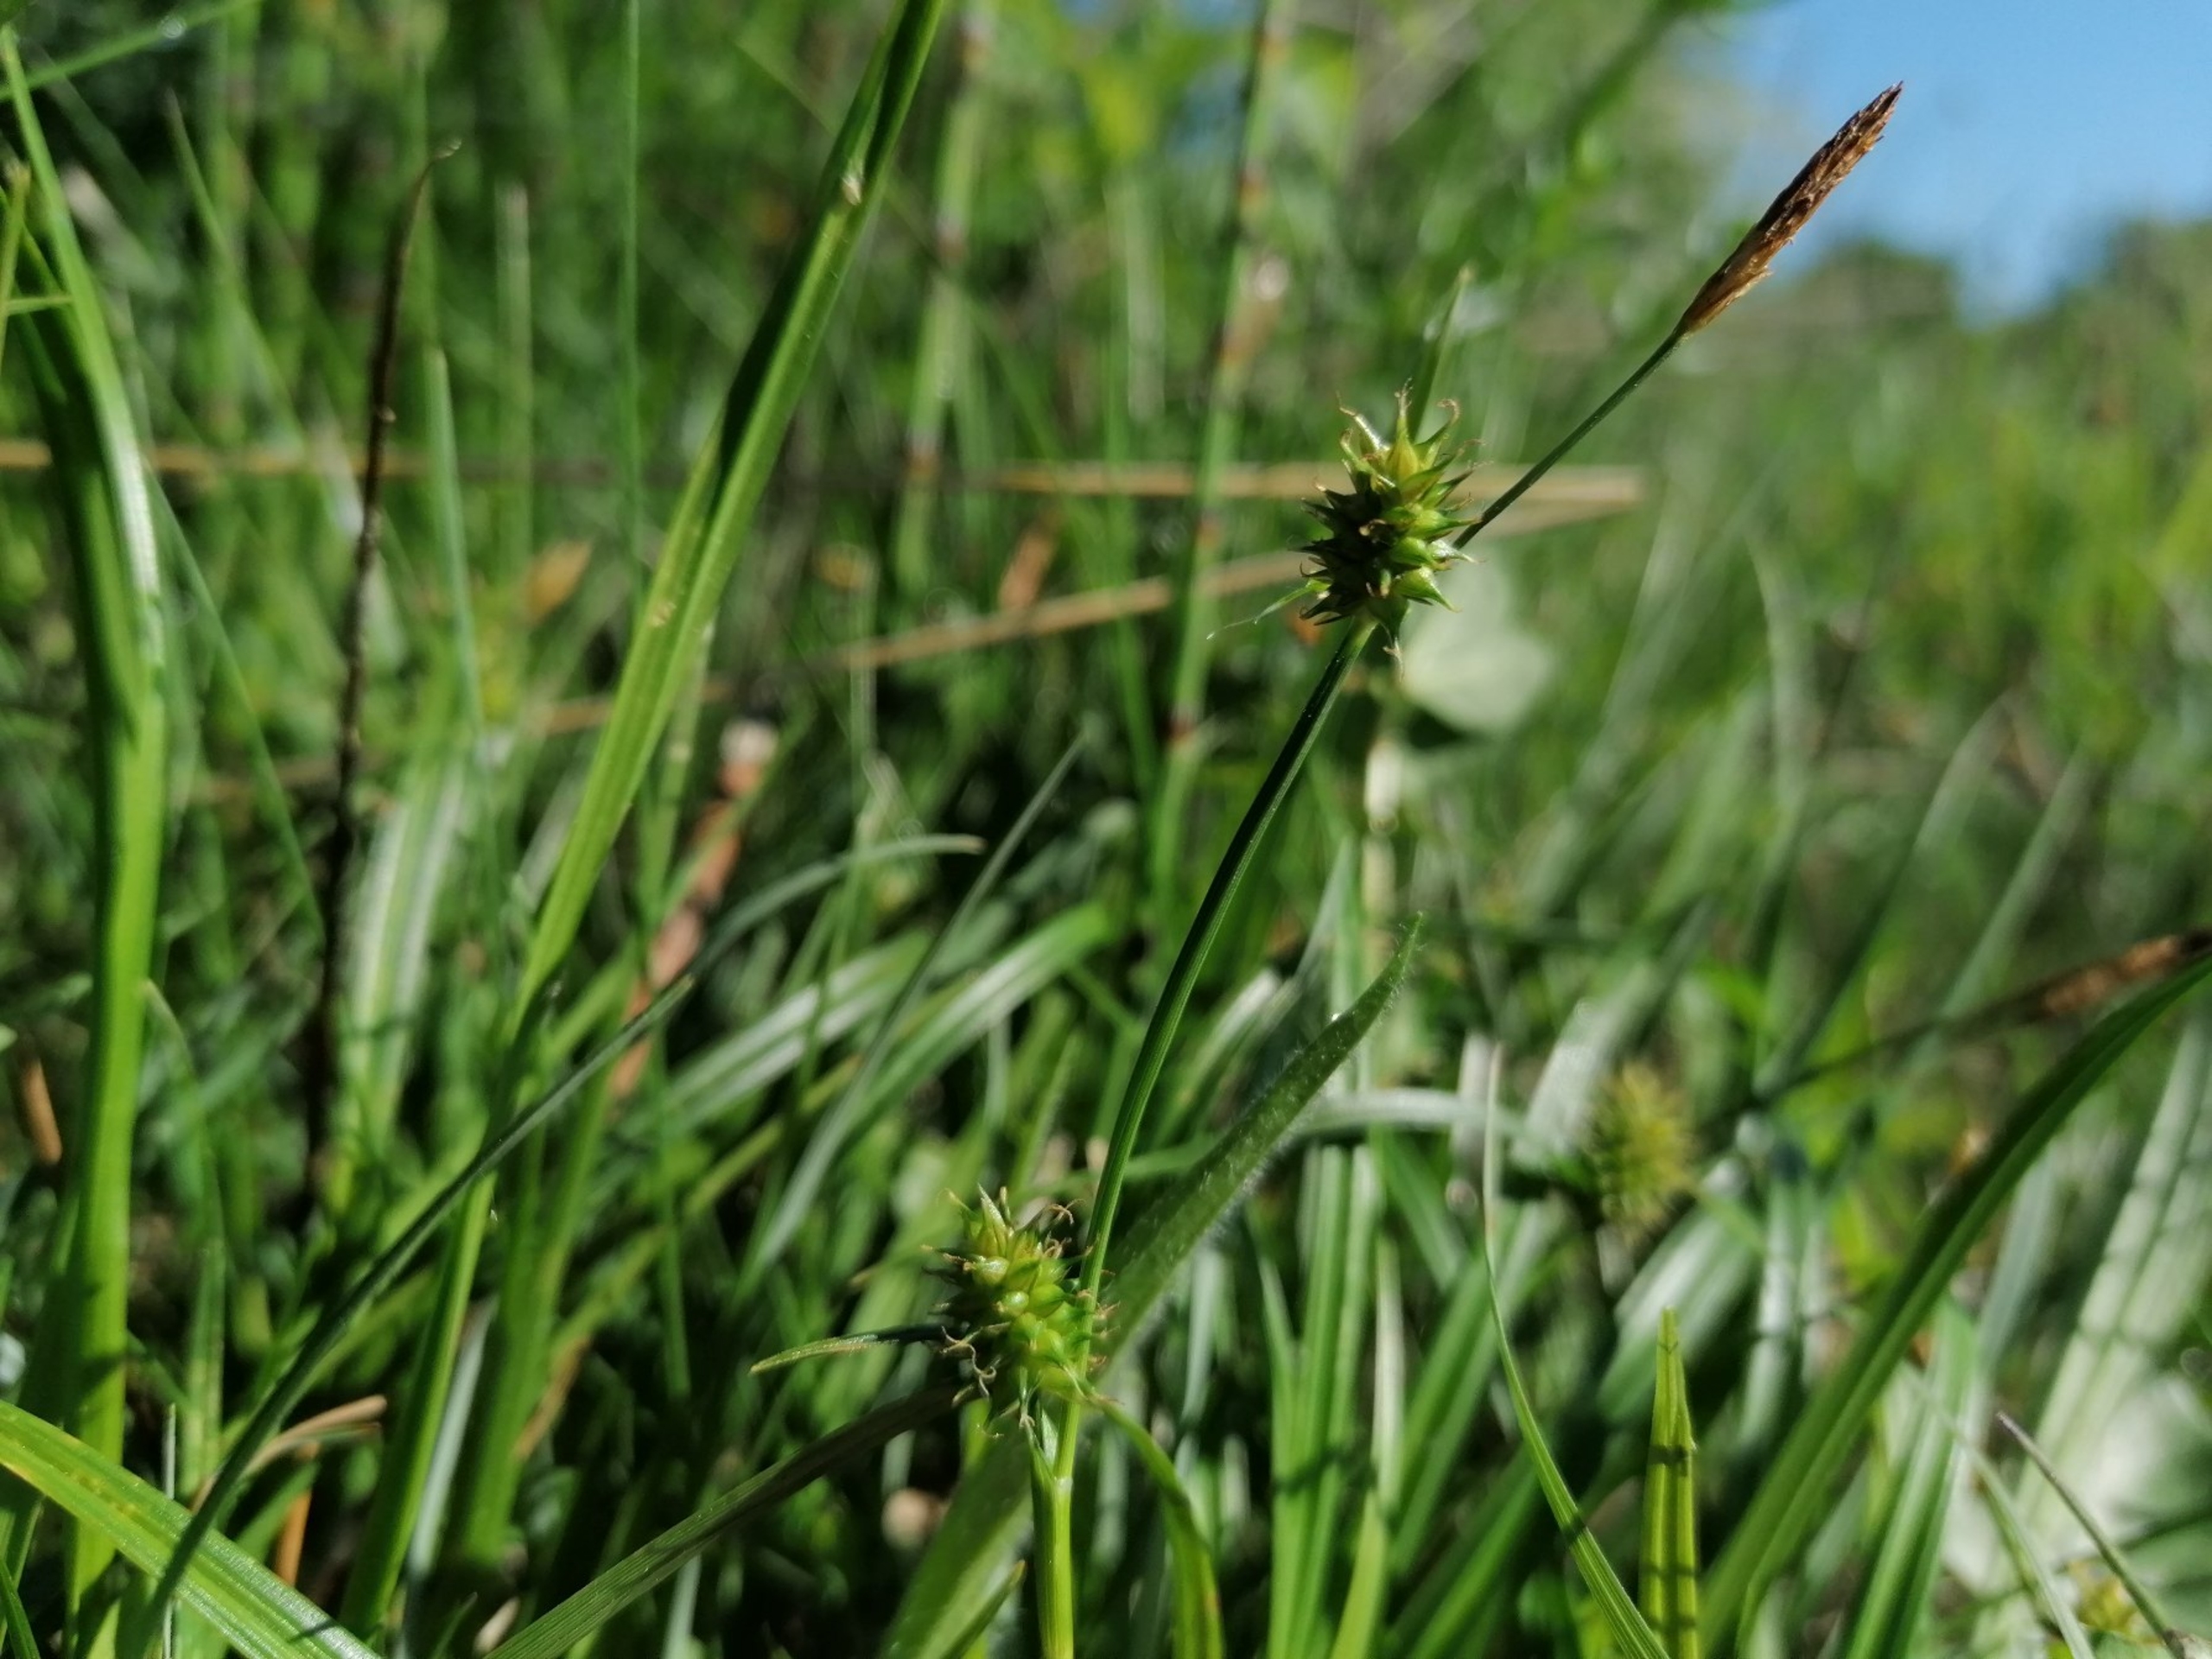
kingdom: Plantae
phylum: Tracheophyta
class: Liliopsida
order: Poales
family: Cyperaceae
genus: Carex
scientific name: Carex demissa
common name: Grøn star
